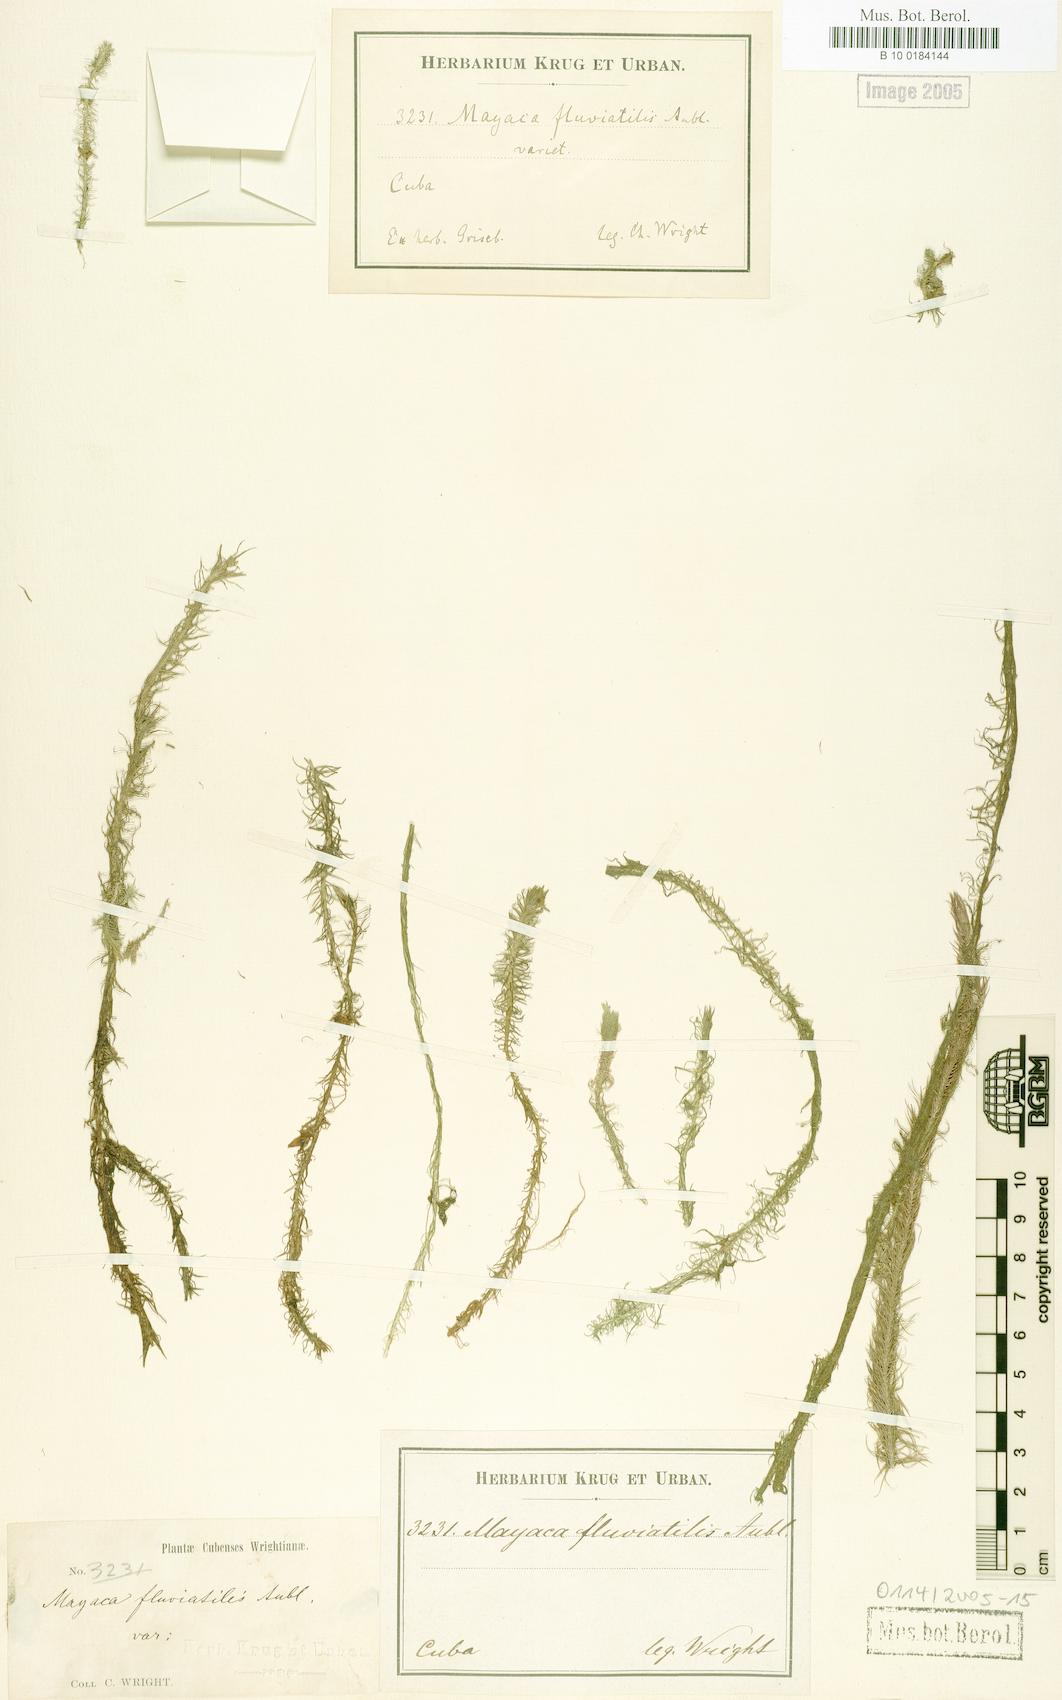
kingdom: Plantae
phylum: Tracheophyta
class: Liliopsida
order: Poales
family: Mayacaceae
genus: Mayaca
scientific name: Mayaca fluviatilis
